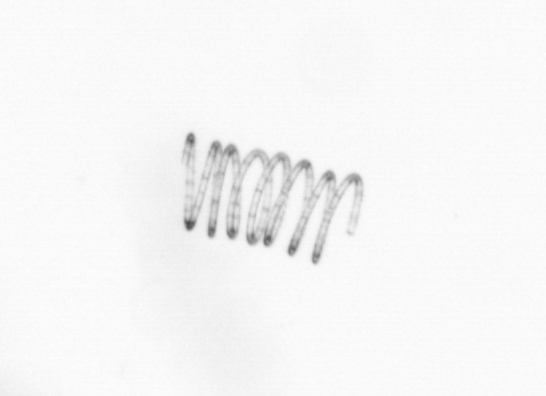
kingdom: Chromista
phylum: Ochrophyta
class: Bacillariophyceae
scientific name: Bacillariophyceae
